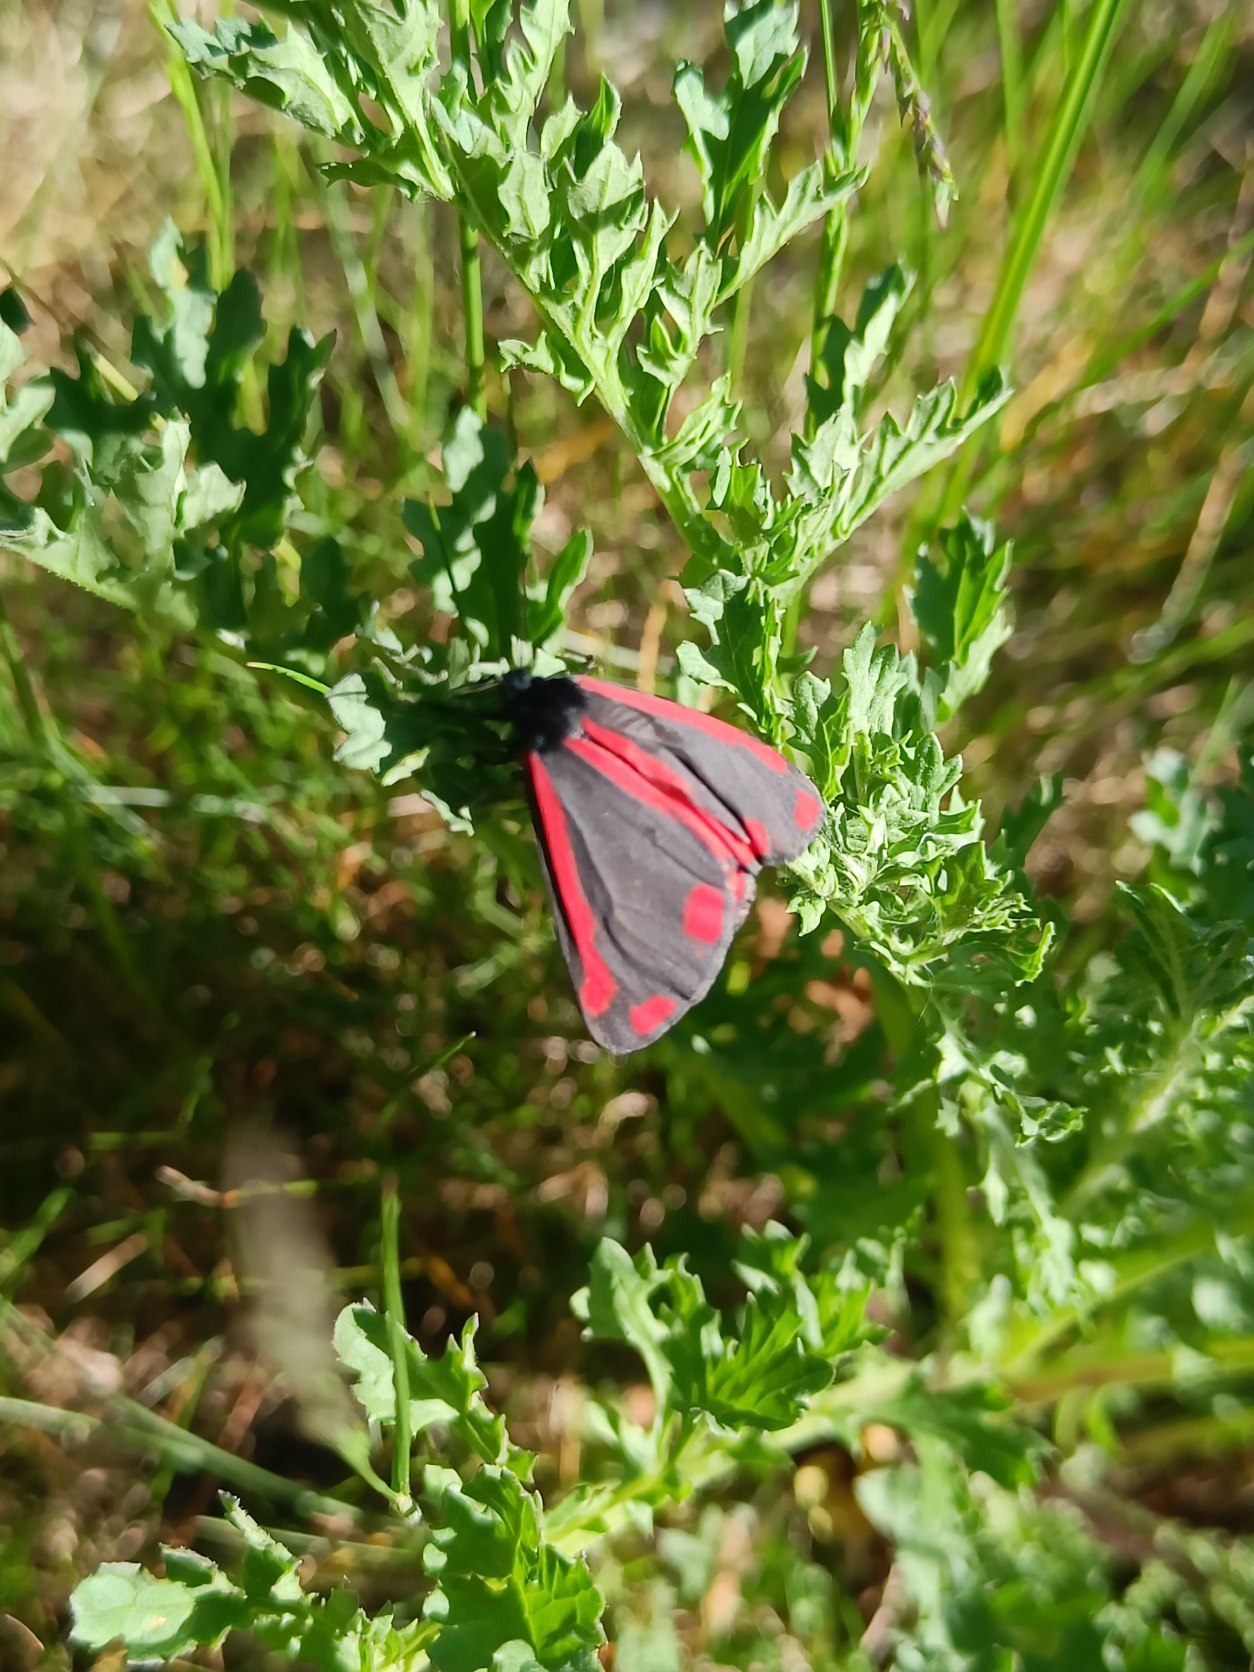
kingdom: Animalia
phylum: Arthropoda
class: Insecta
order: Lepidoptera
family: Erebidae
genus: Tyria
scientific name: Tyria jacobaeae
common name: Blodplet
